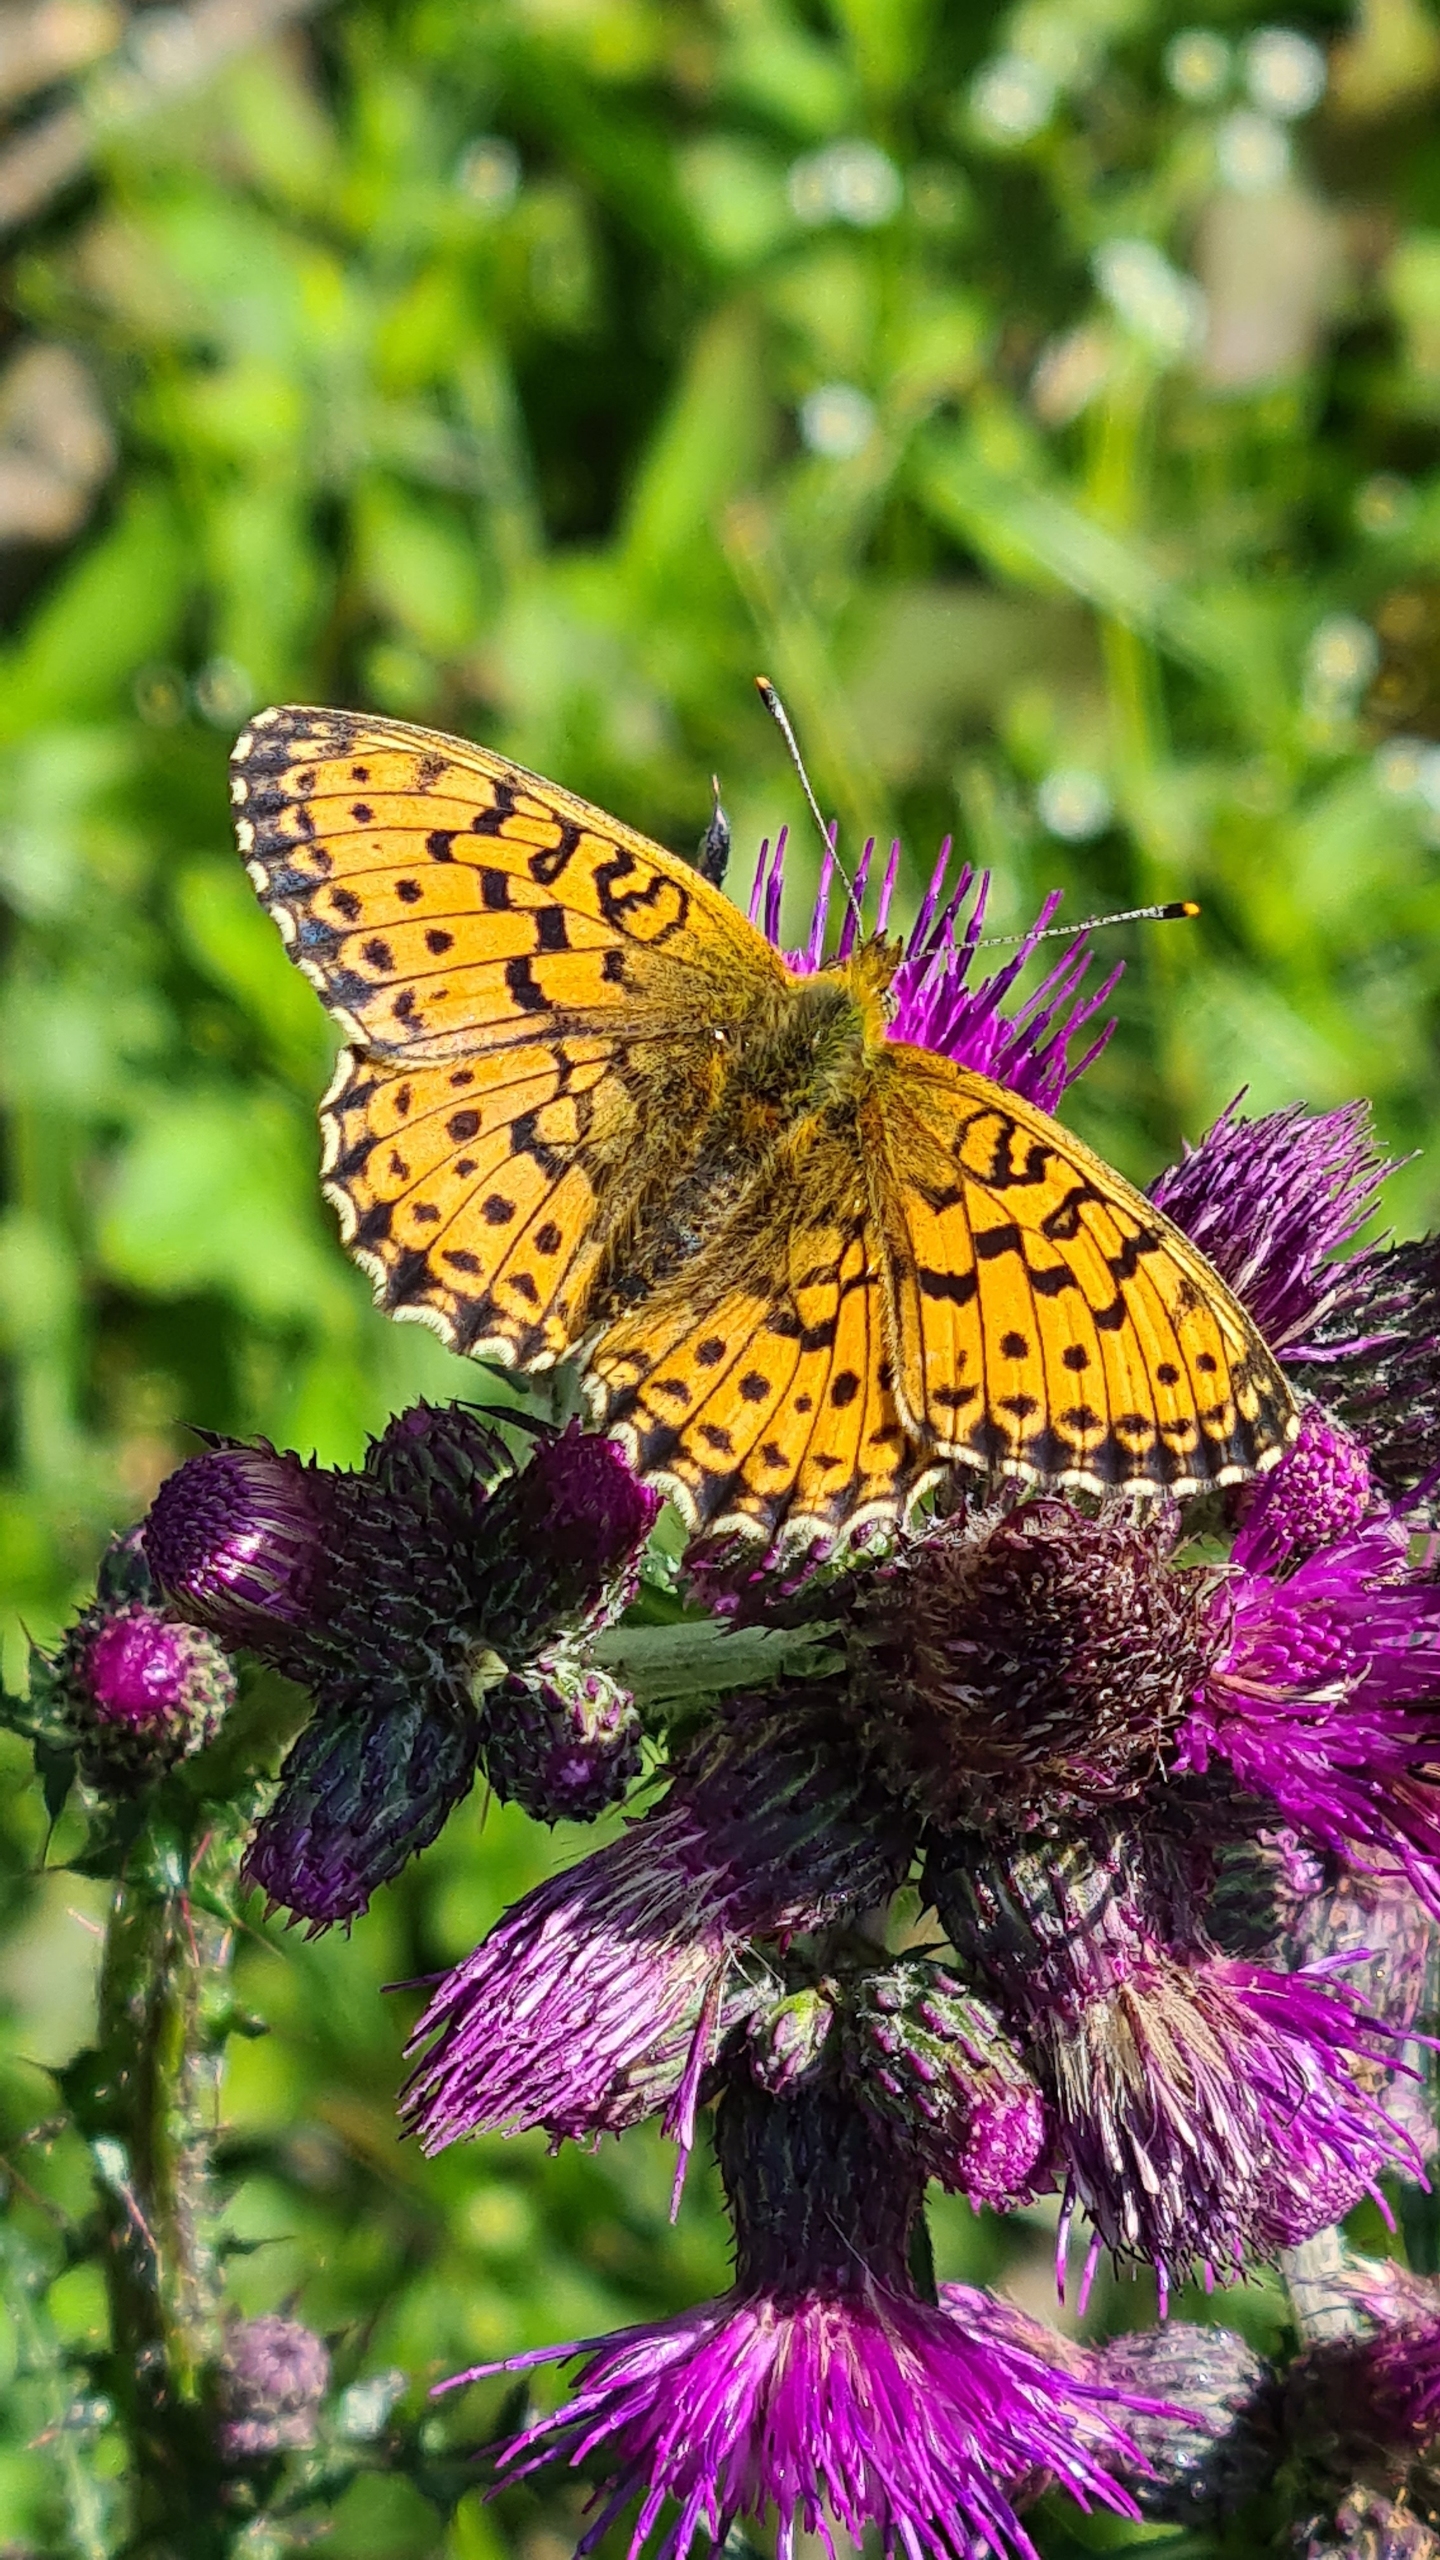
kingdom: Animalia
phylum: Arthropoda
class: Insecta
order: Lepidoptera
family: Nymphalidae
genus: Brenthis
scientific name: Brenthis ino
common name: Engperlemorsommerfugl
